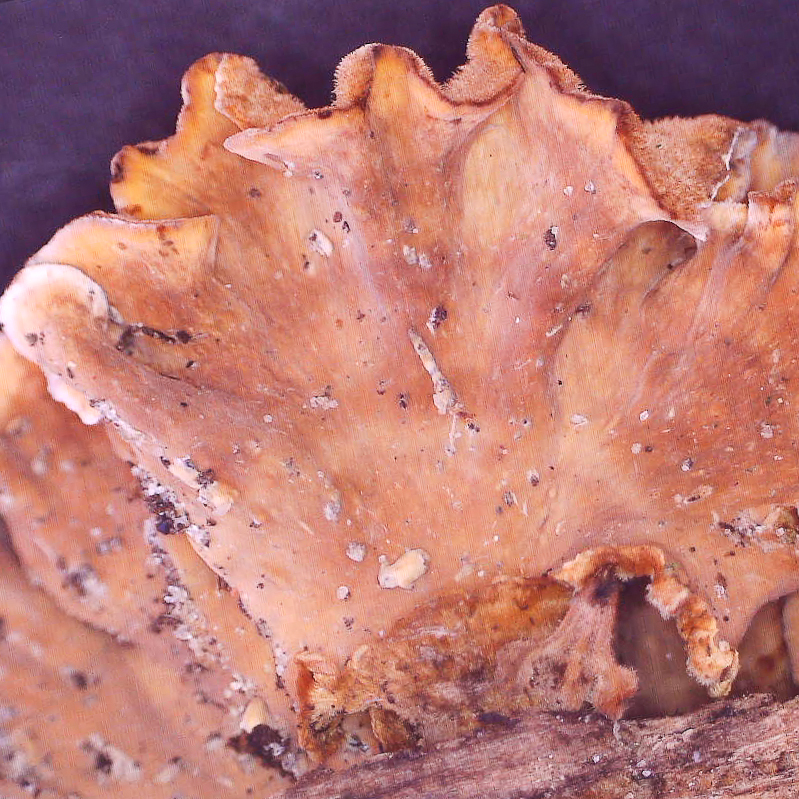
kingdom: Fungi
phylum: Basidiomycota
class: Agaricomycetes
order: Russulales
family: Stereaceae
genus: Stereum
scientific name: Stereum hirsutum
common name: håret lædersvamp
